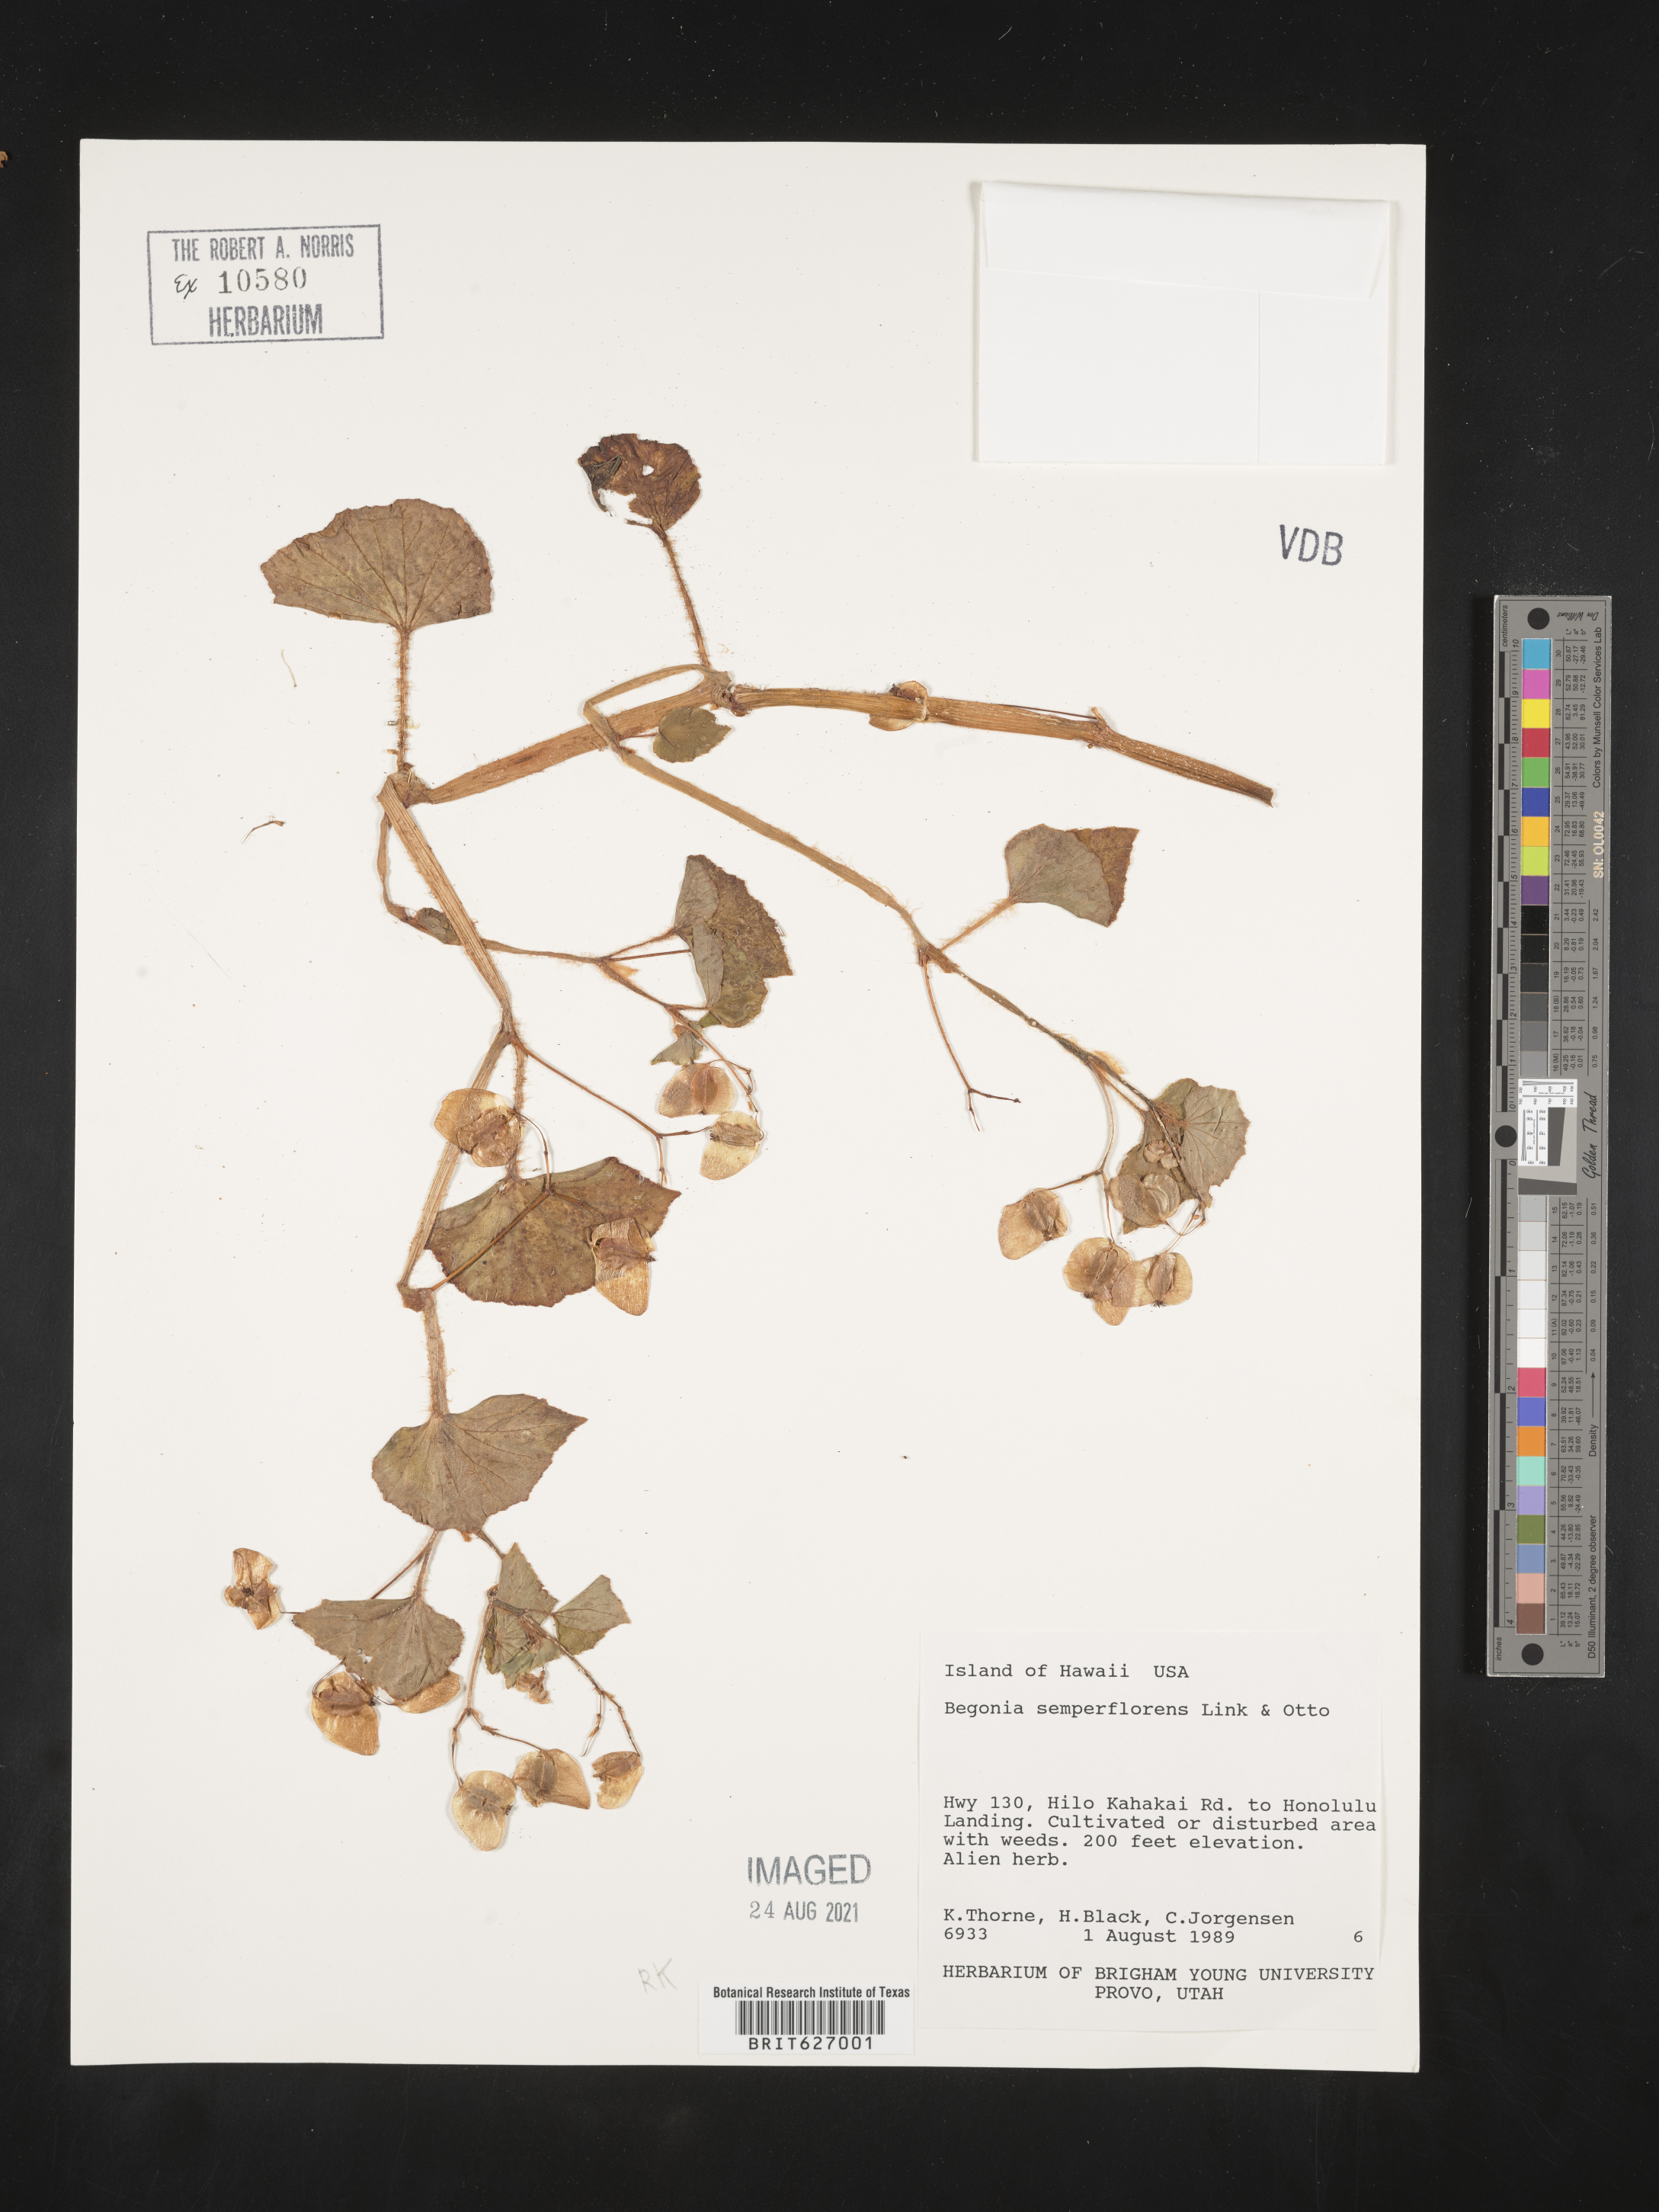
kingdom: Plantae
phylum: Tracheophyta
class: Magnoliopsida
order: Cucurbitales
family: Begoniaceae
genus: Begonia
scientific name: Begonia semperflorens
